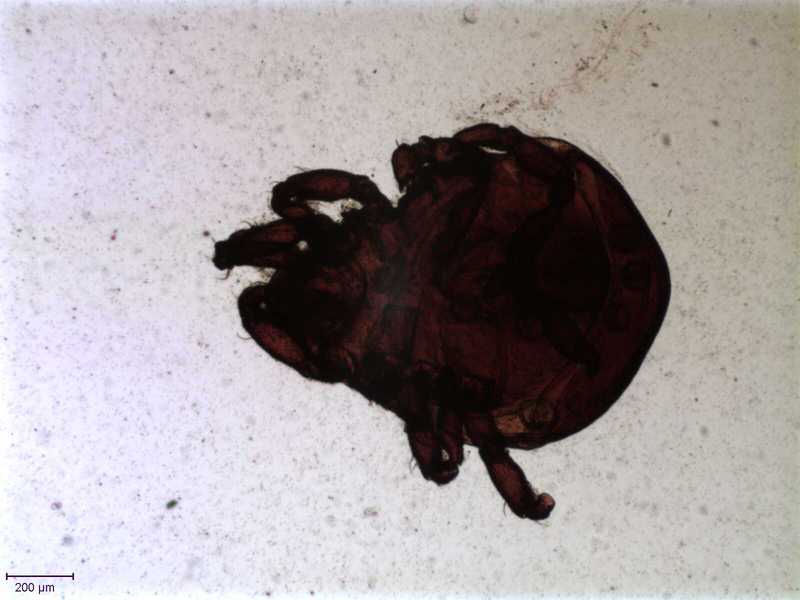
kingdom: Animalia
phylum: Arthropoda
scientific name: Arthropoda
